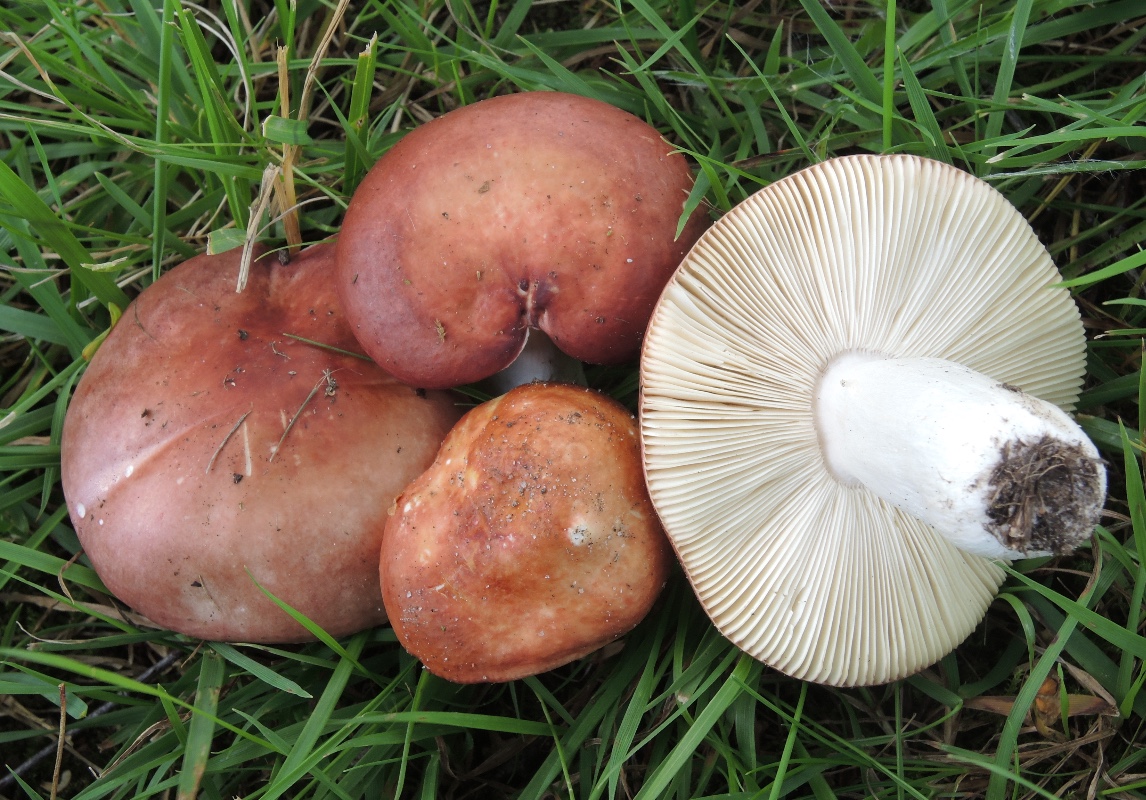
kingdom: Fungi
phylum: Basidiomycota
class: Agaricomycetes
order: Russulales
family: Russulaceae
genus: Russula
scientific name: Russula velenovskyi
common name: orangerød skørhat
